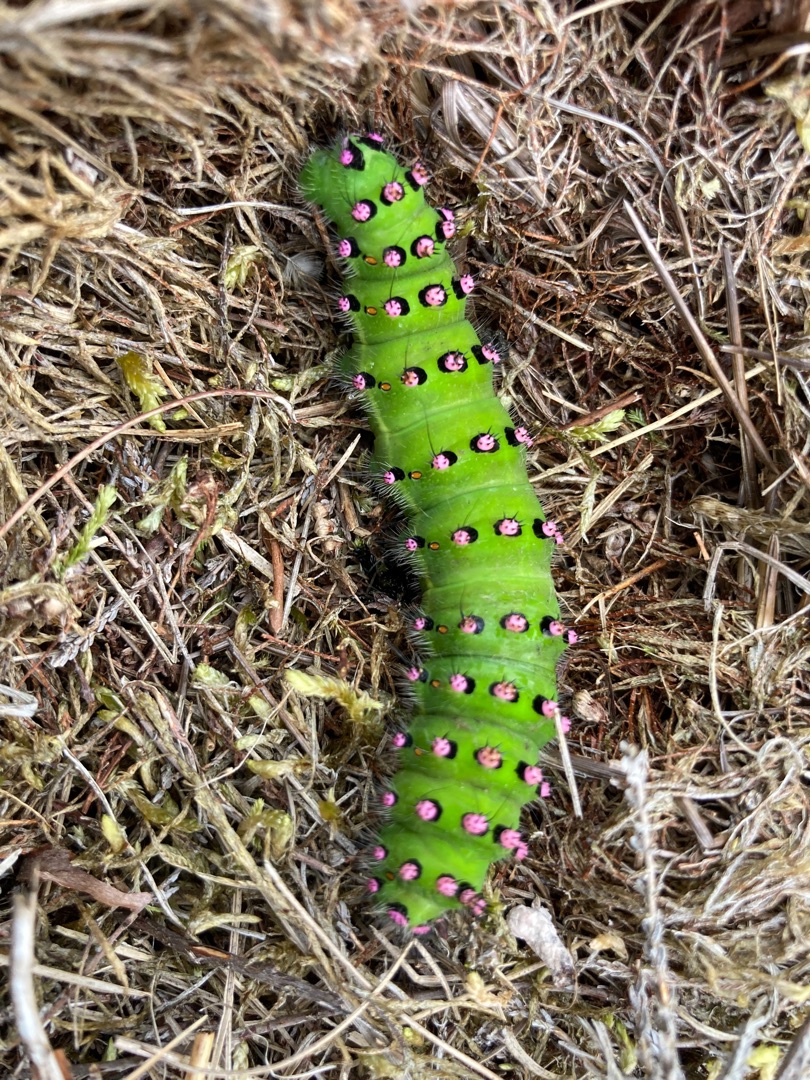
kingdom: Animalia
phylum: Arthropoda
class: Insecta
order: Lepidoptera
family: Saturniidae
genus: Saturnia
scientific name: Saturnia pavonia
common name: Lille natpåfugleøje
